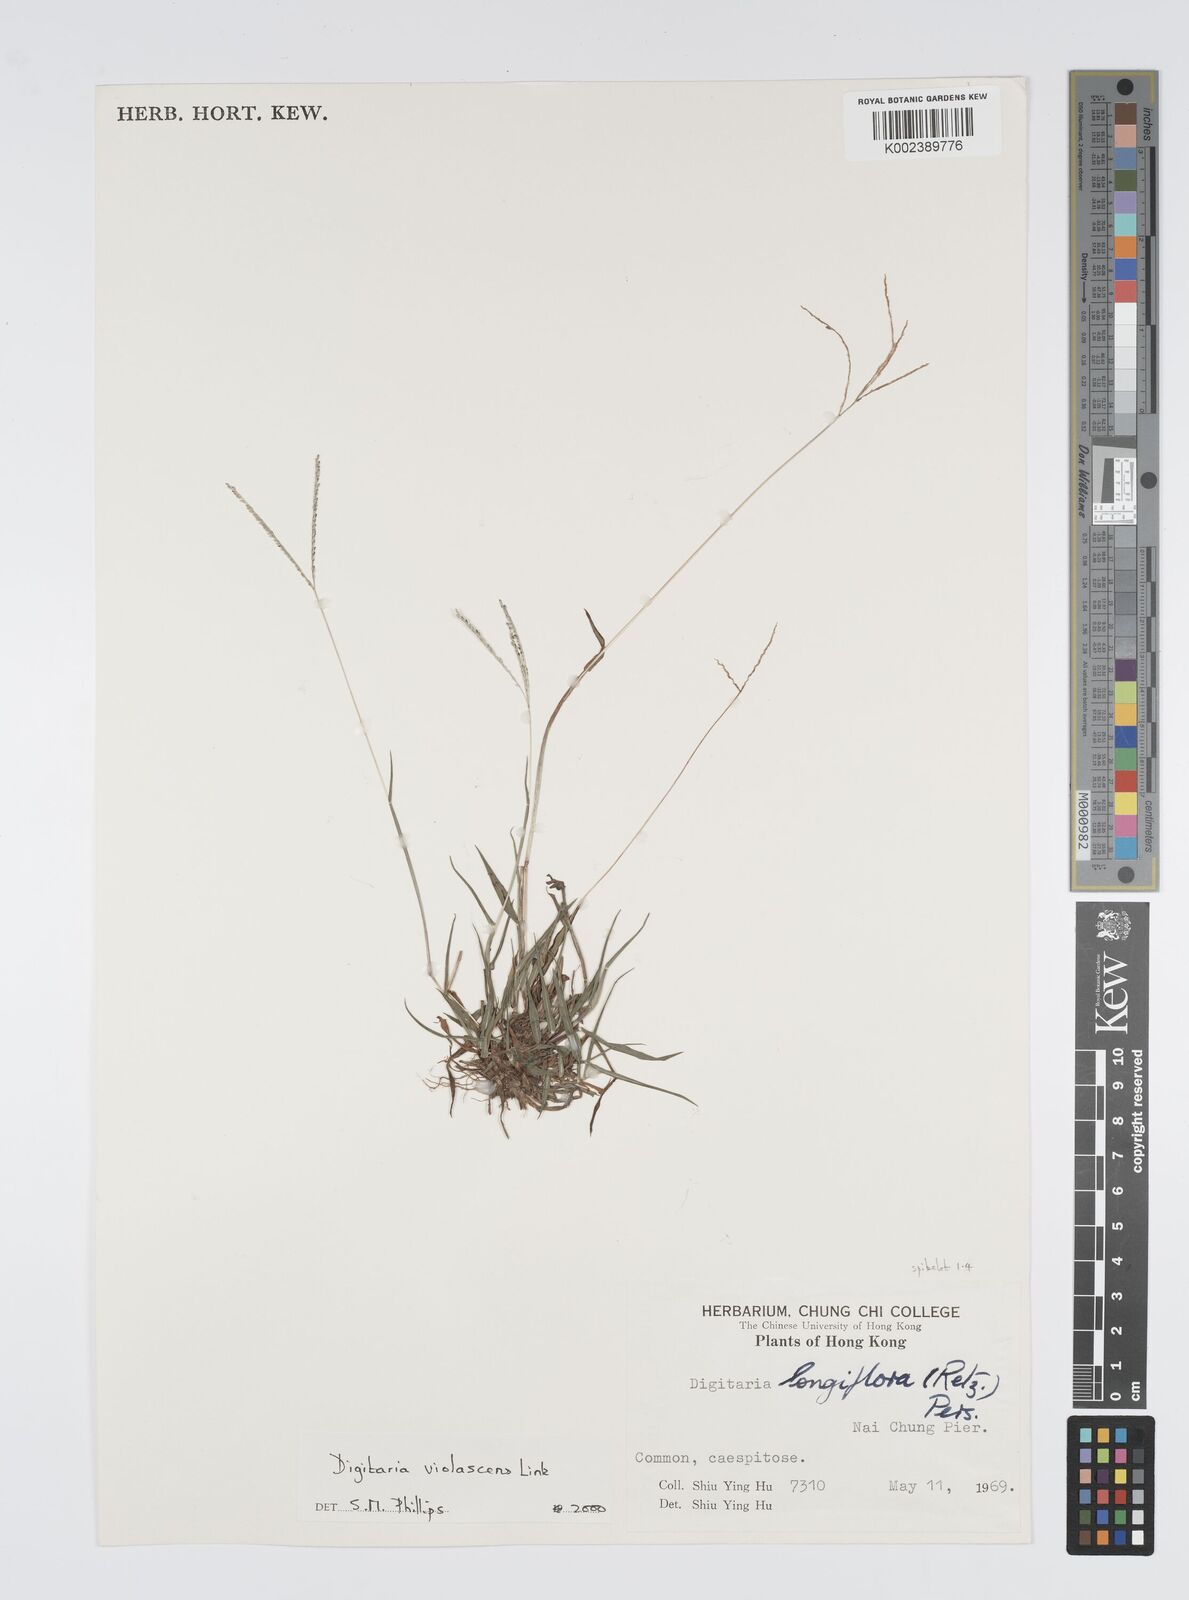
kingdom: Plantae
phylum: Tracheophyta
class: Liliopsida
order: Poales
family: Poaceae
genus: Digitaria
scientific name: Digitaria violascens
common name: Violet crabgrass
